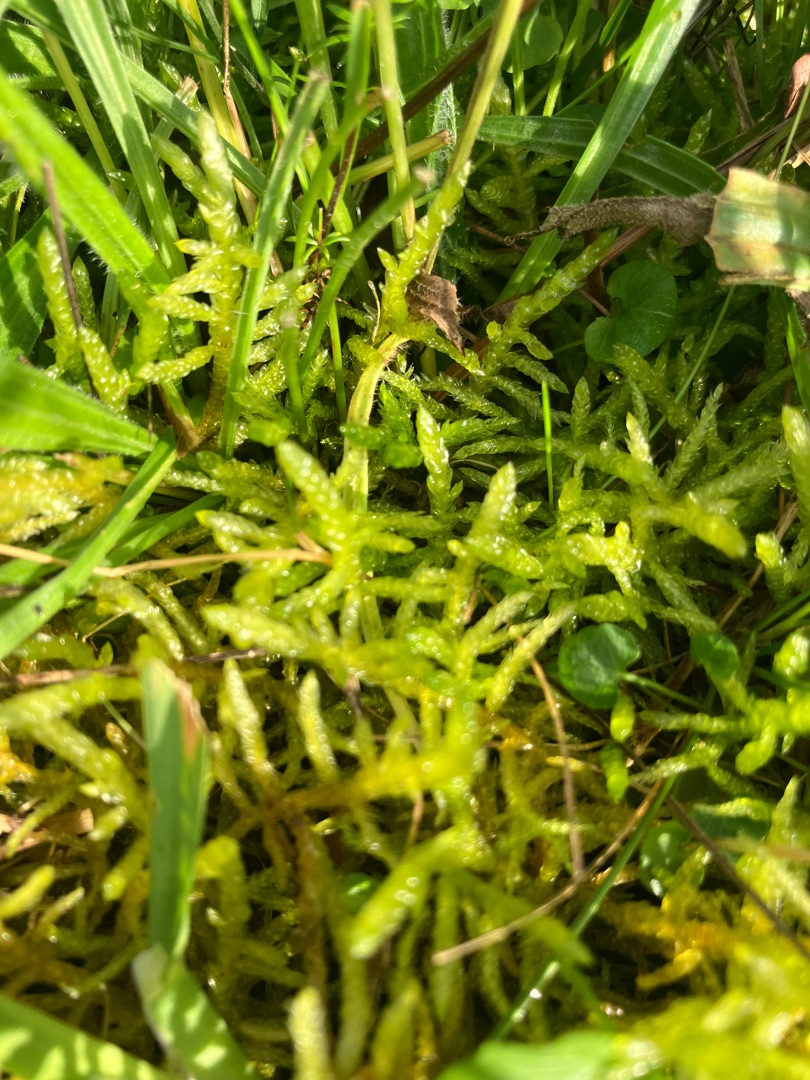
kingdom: Plantae
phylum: Bryophyta
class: Bryopsida
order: Hypnales
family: Brachytheciaceae
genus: Pseudoscleropodium
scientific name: Pseudoscleropodium purum
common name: Hulbladet fedtmos
